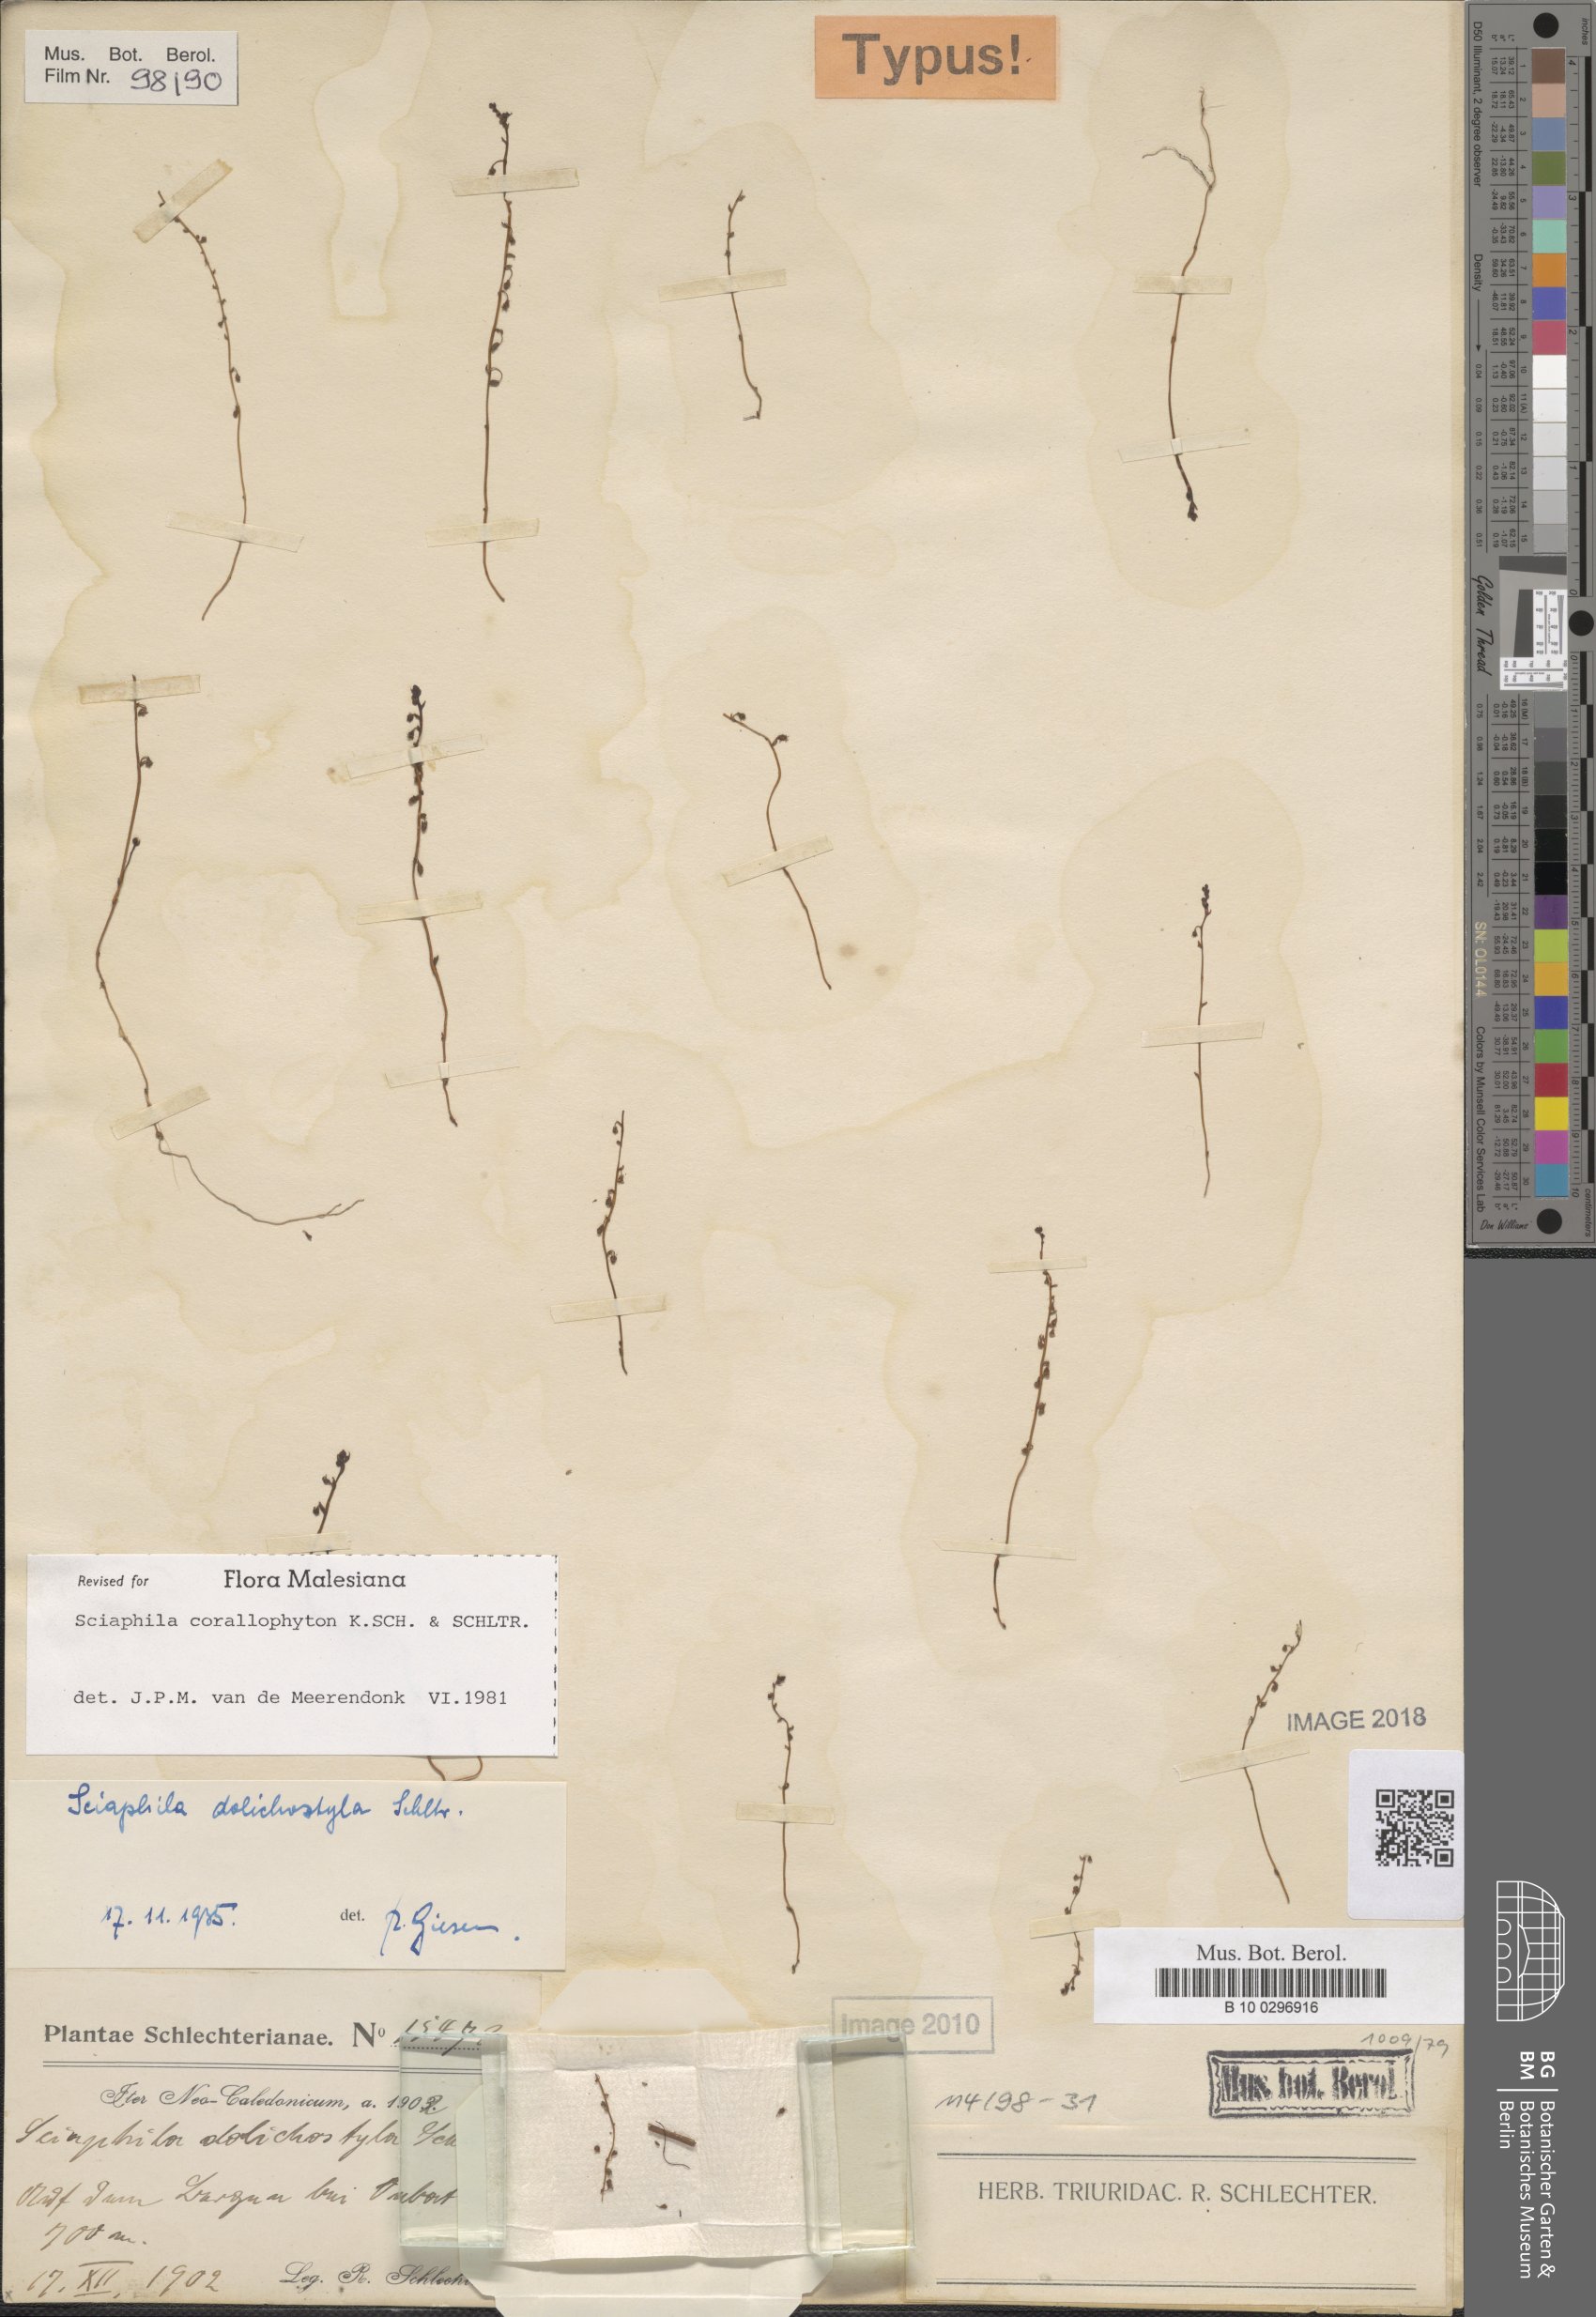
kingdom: Plantae
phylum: Tracheophyta
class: Liliopsida
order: Pandanales
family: Triuridaceae
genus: Sciaphila
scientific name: Sciaphila corallophyton
